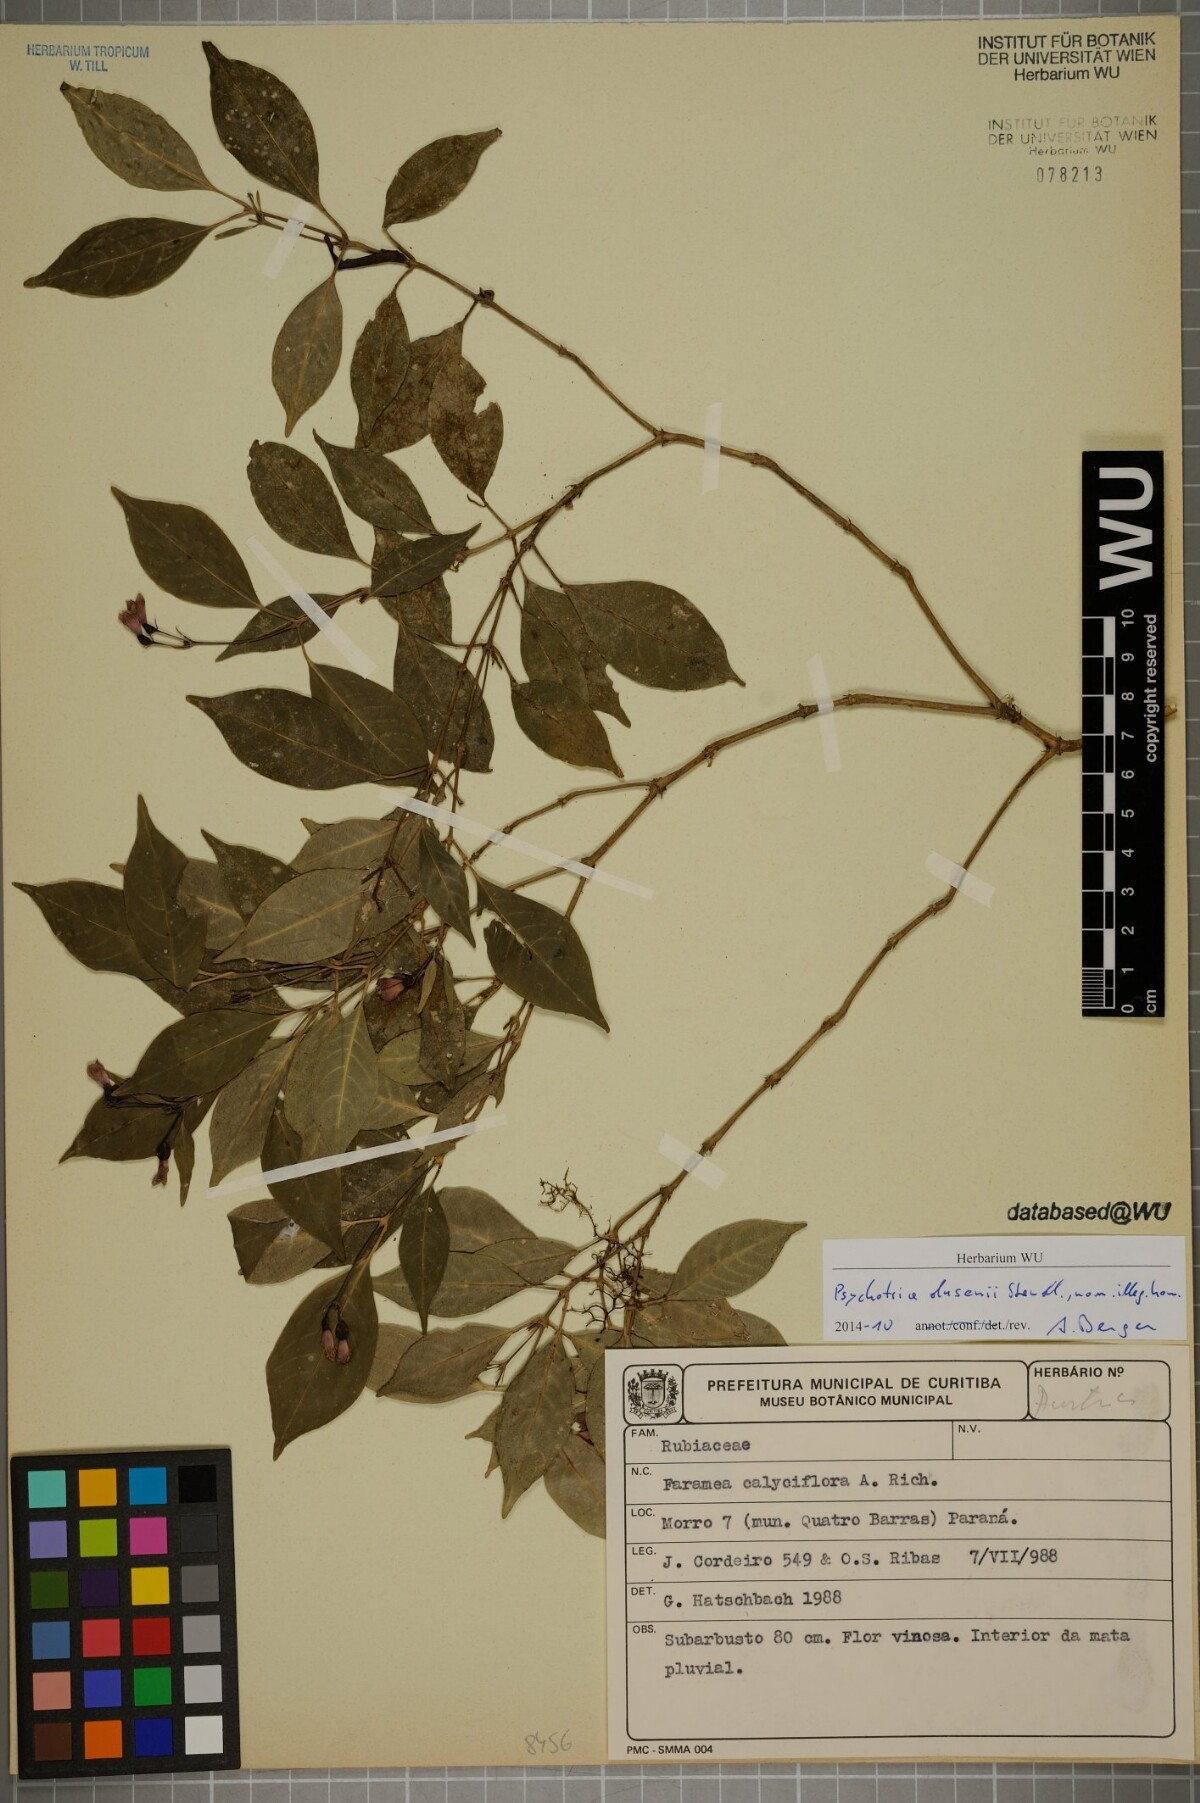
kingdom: Plantae
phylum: Tracheophyta
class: Magnoliopsida
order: Gentianales
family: Rubiaceae
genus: Psychotria
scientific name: Psychotria alegre
